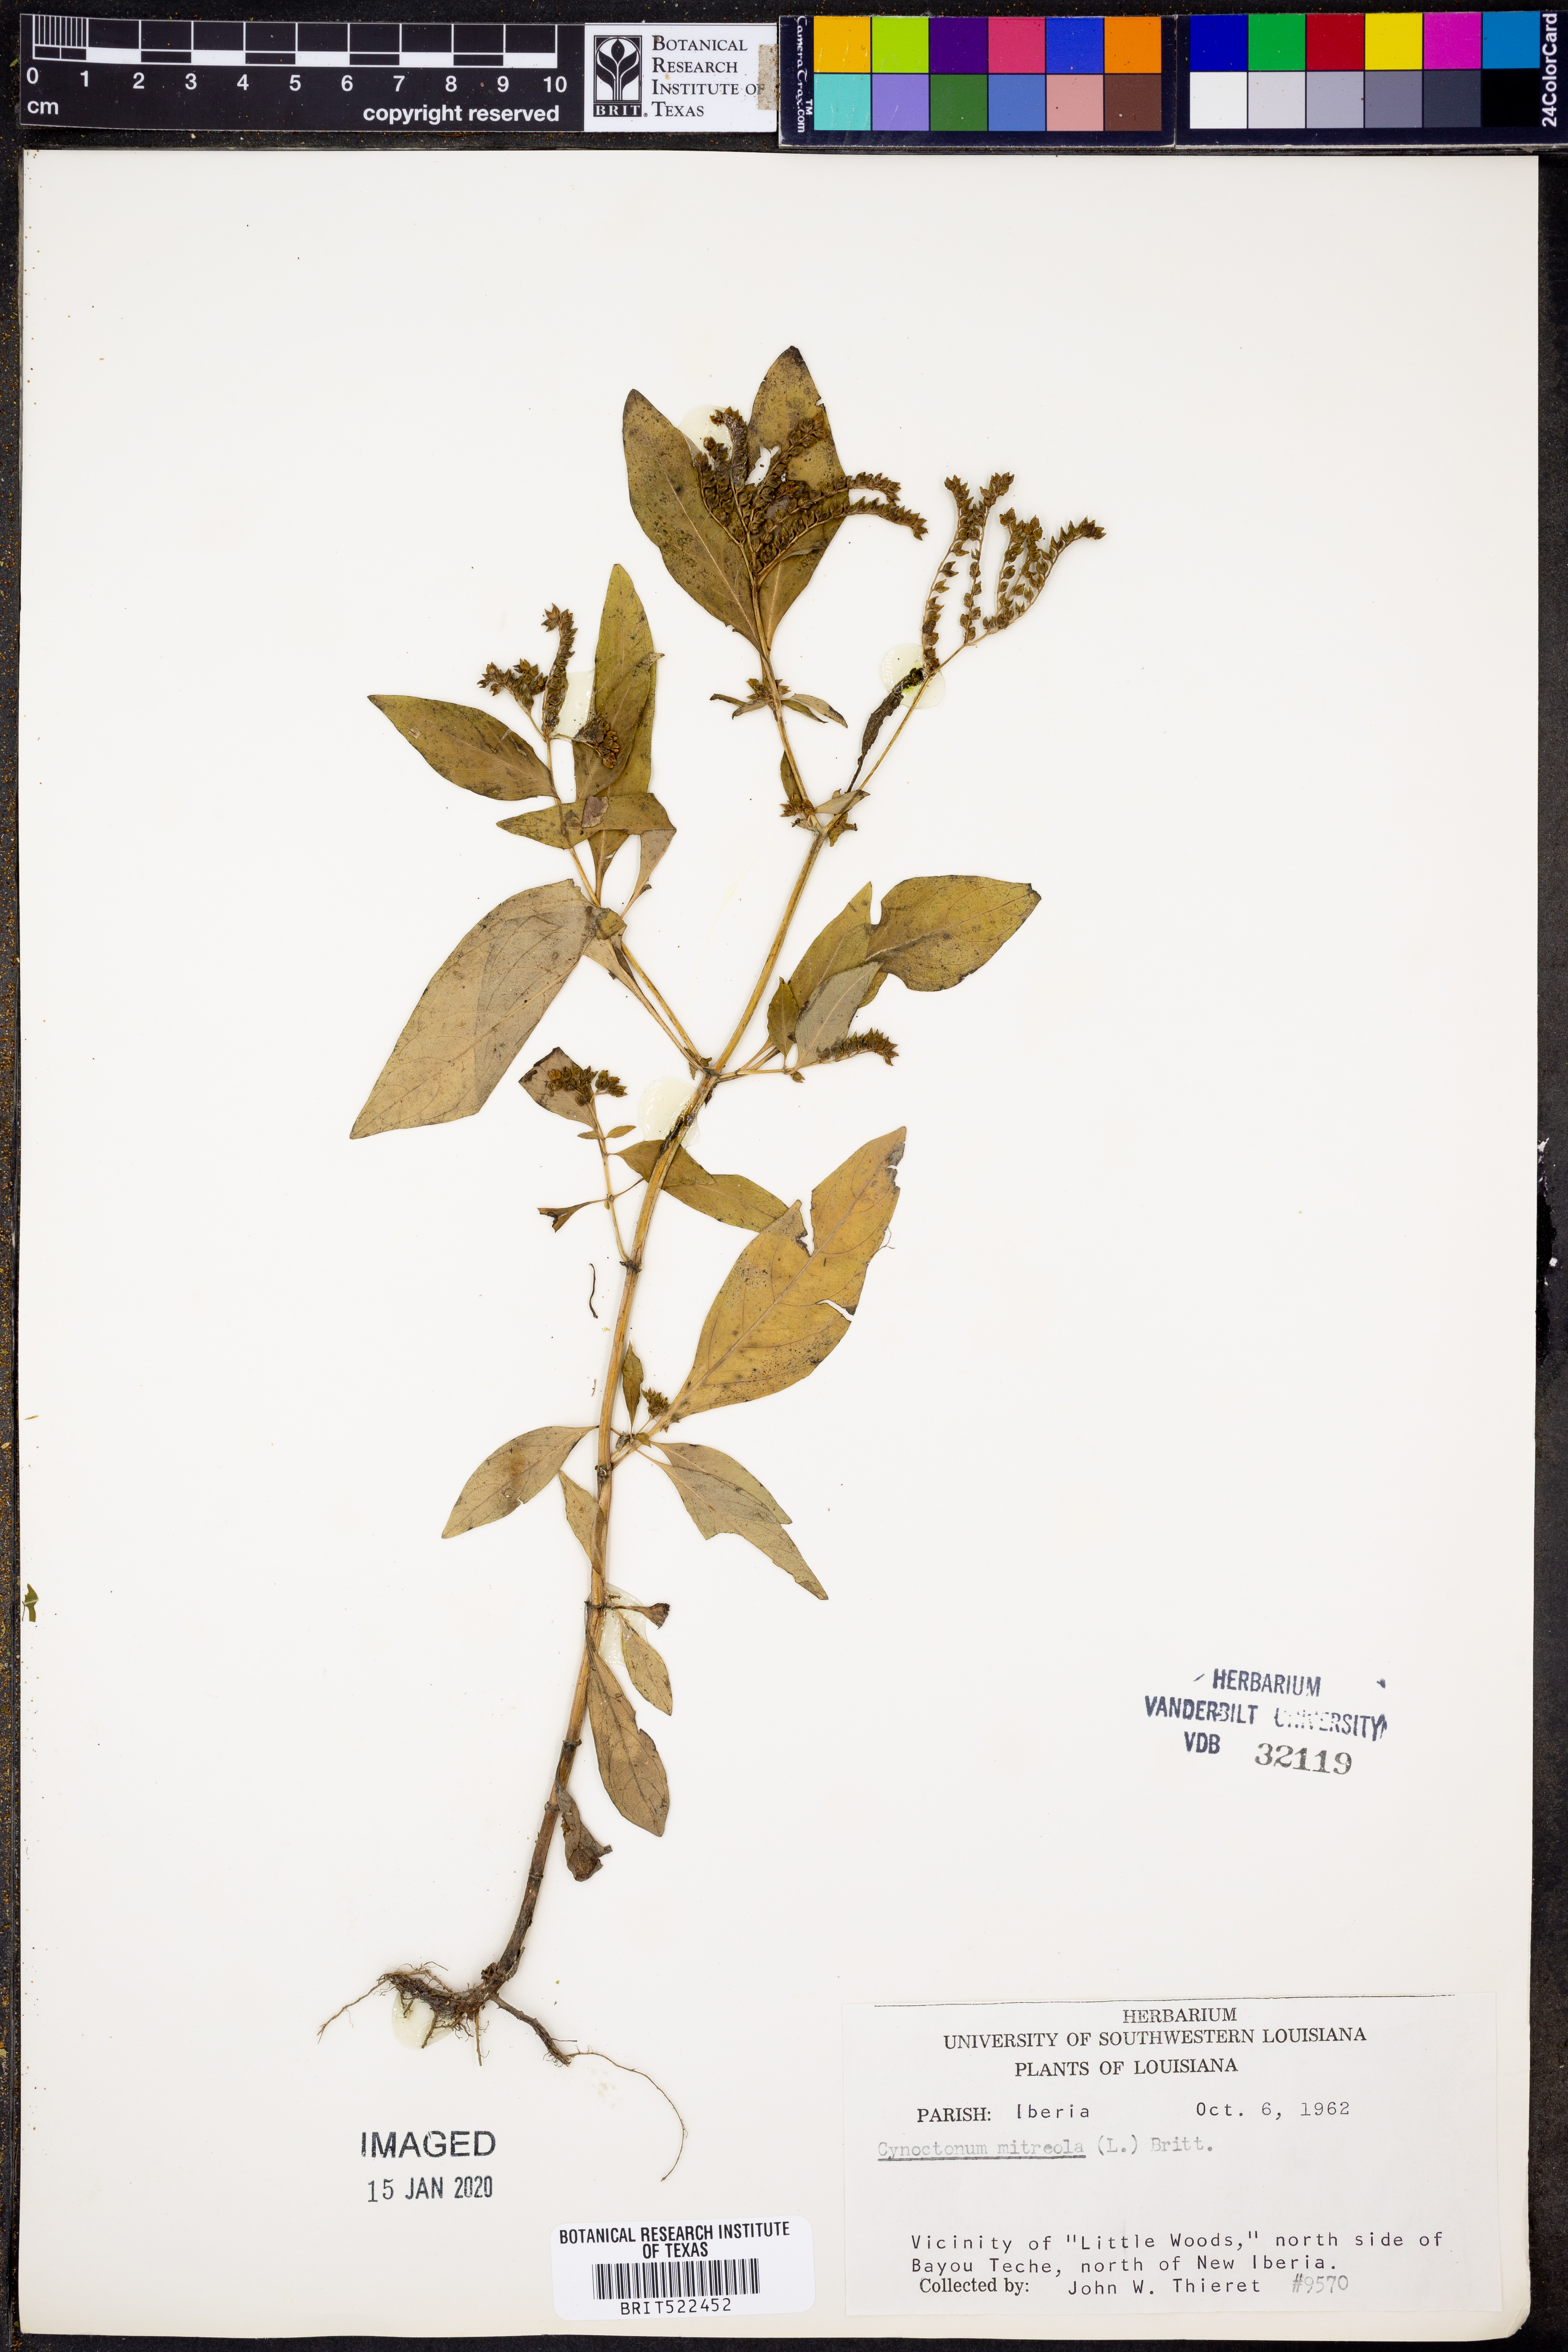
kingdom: Plantae
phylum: Tracheophyta
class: Magnoliopsida
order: Gentianales
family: Loganiaceae
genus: Mitreola
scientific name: Mitreola petiolata
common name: Lax hornpod
